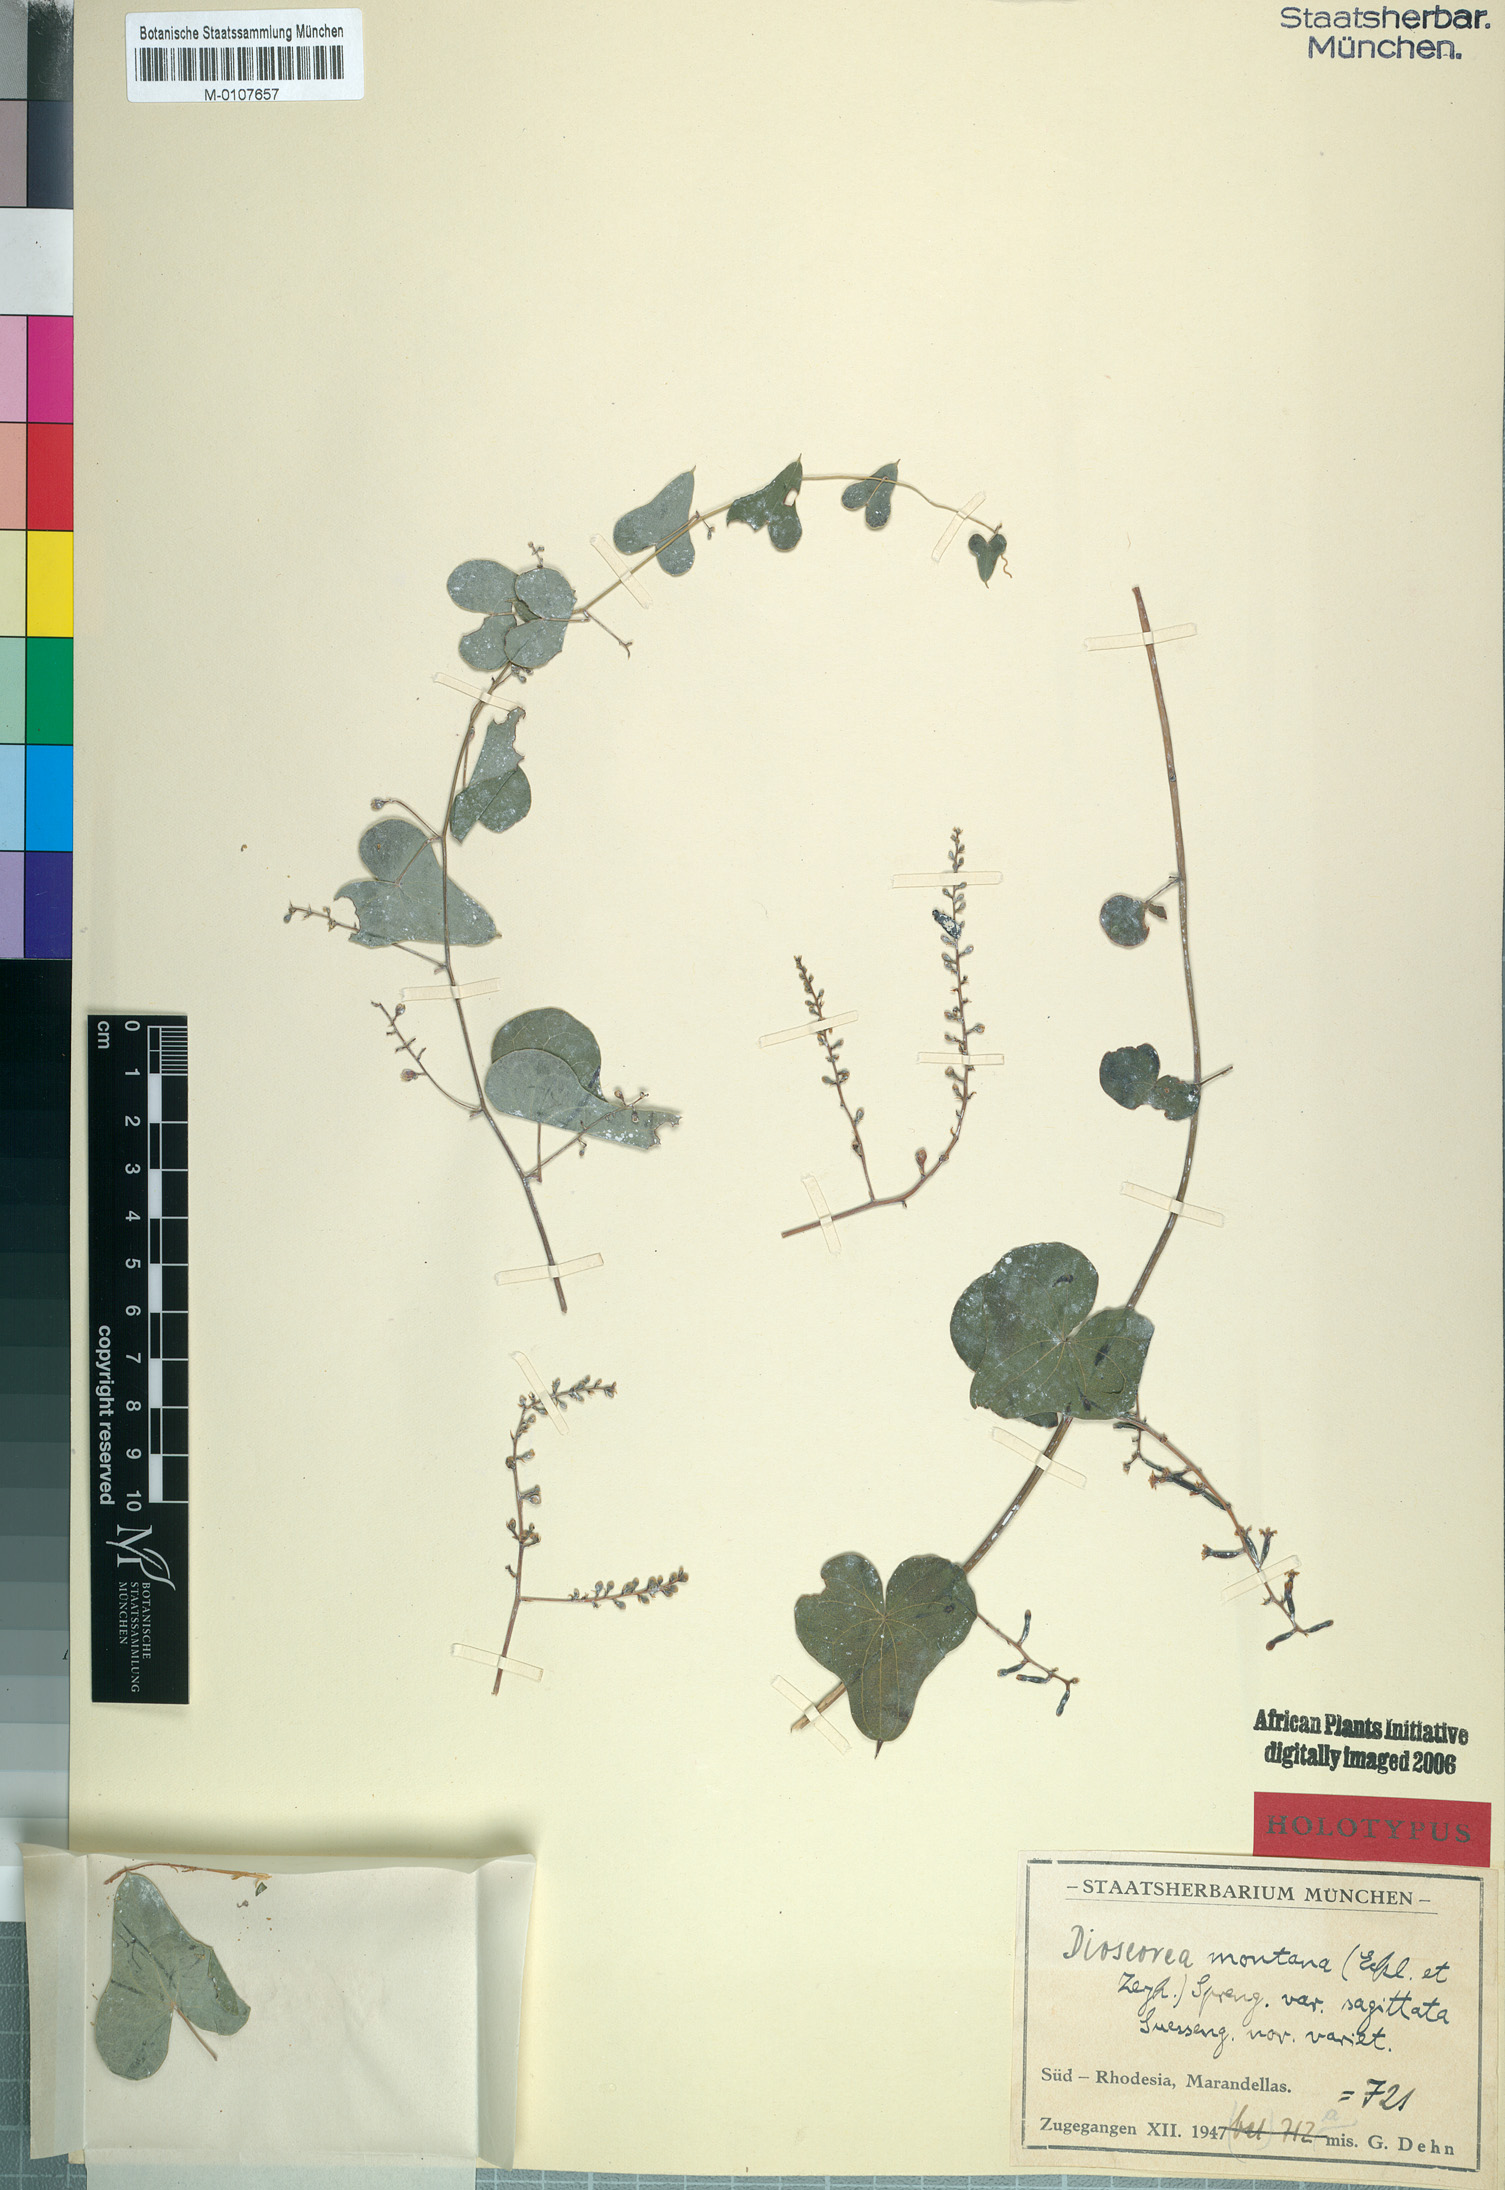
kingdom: Plantae
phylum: Tracheophyta
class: Liliopsida
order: Dioscoreales
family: Dioscoreaceae
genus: Dioscorea
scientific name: Dioscorea sylvatica
